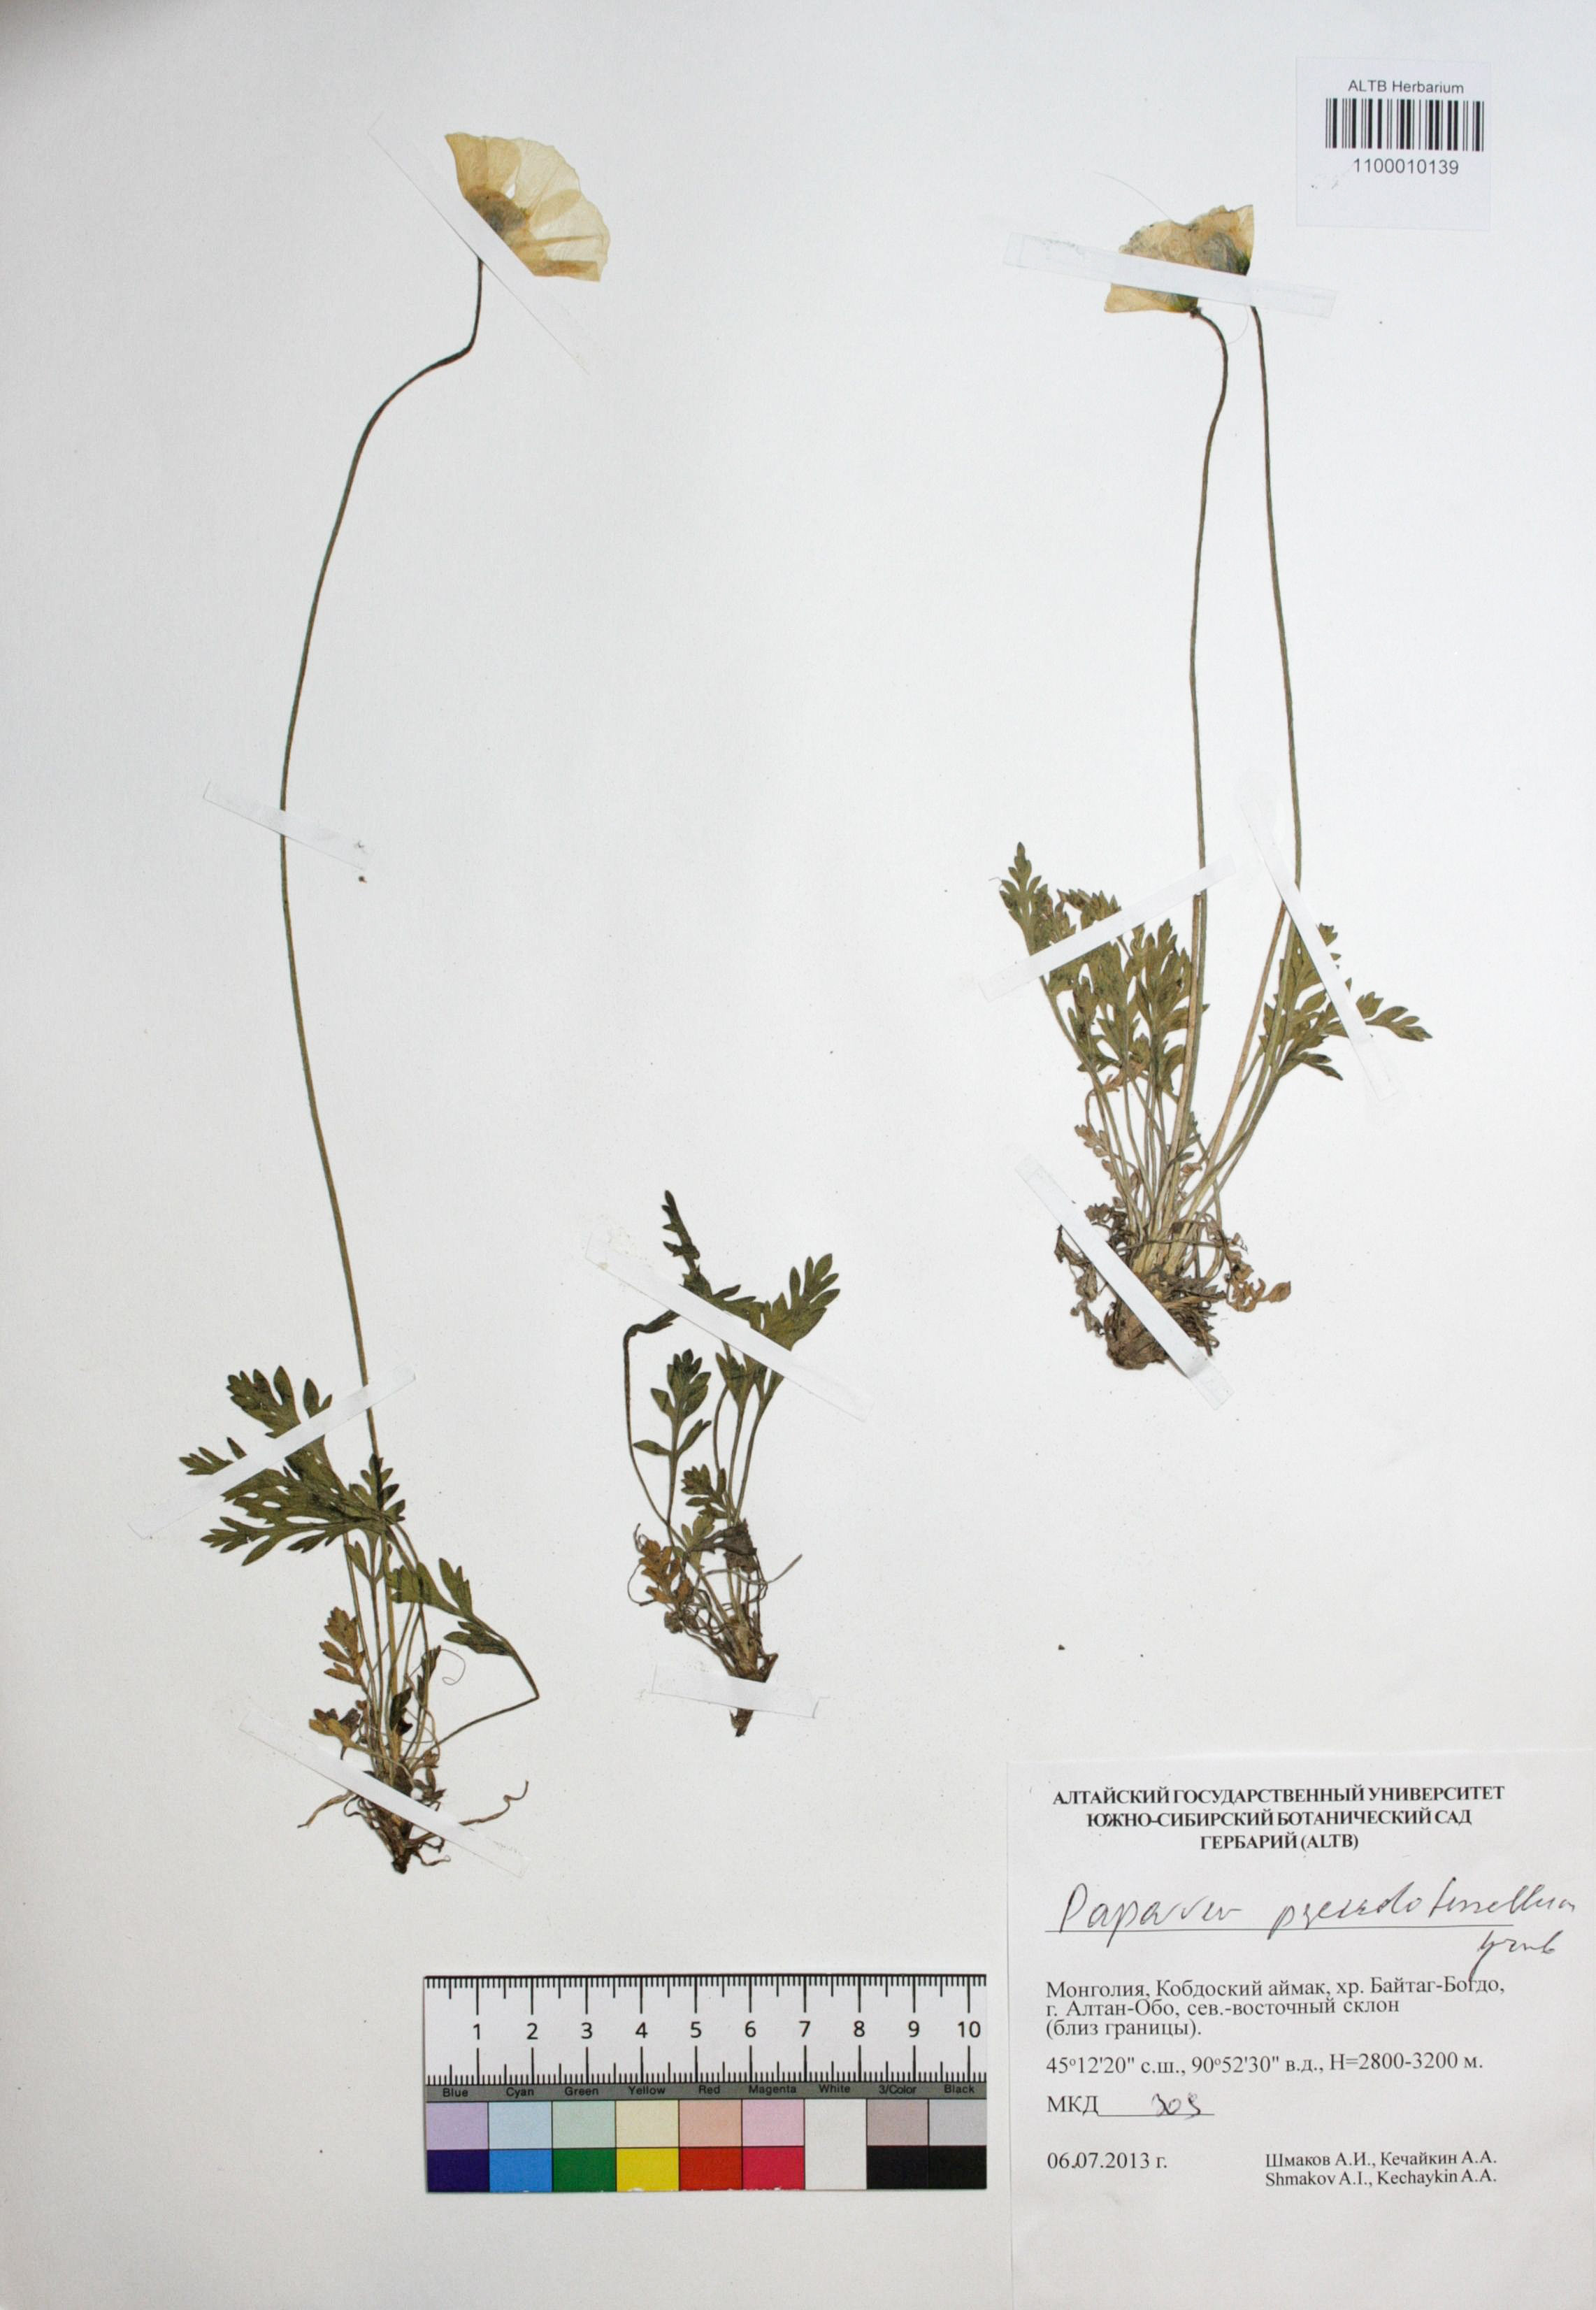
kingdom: Plantae
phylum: Tracheophyta
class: Magnoliopsida
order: Ranunculales
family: Papaveraceae
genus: Papaver
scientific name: Papaver canescens
